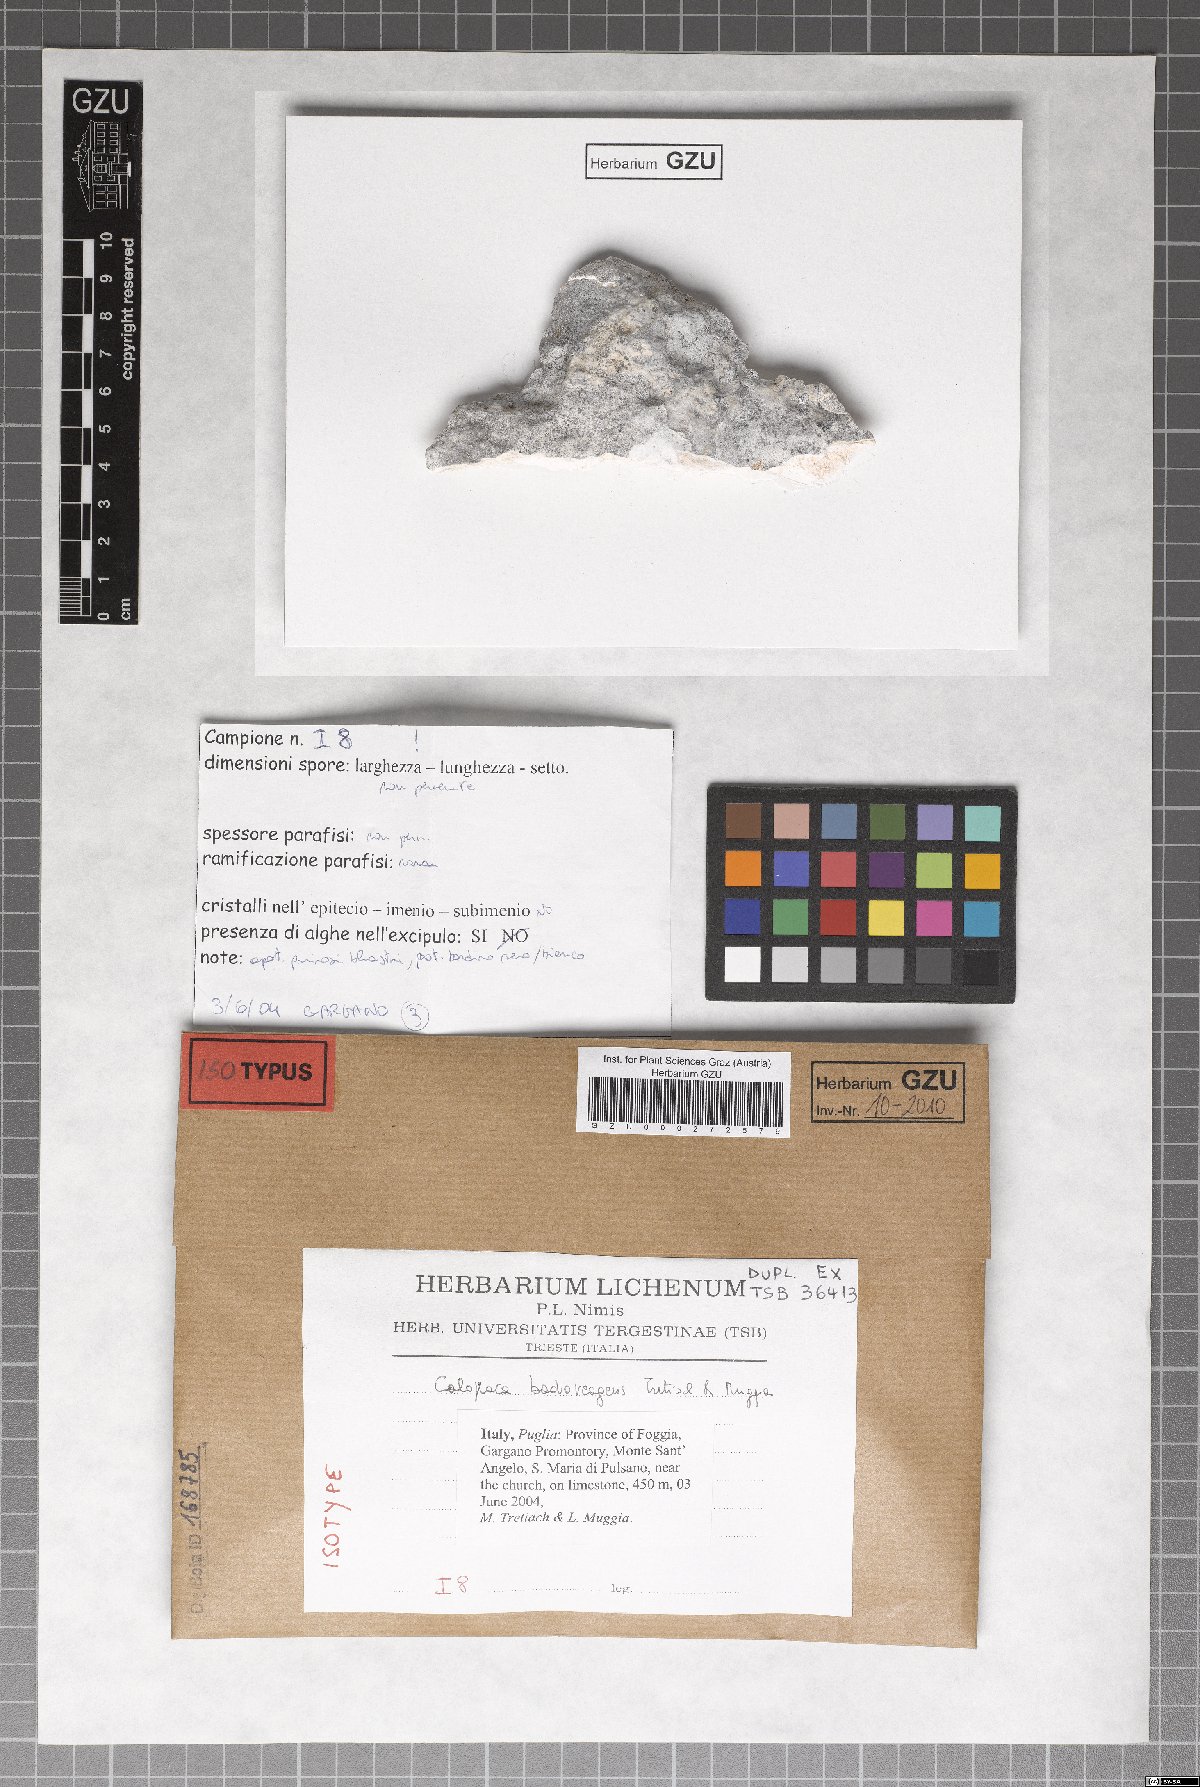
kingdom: Fungi
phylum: Ascomycota
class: Lecanoromycetes
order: Teloschistales
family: Teloschistaceae
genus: Pyrenodesmia
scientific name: Pyrenodesmia badioreagens
